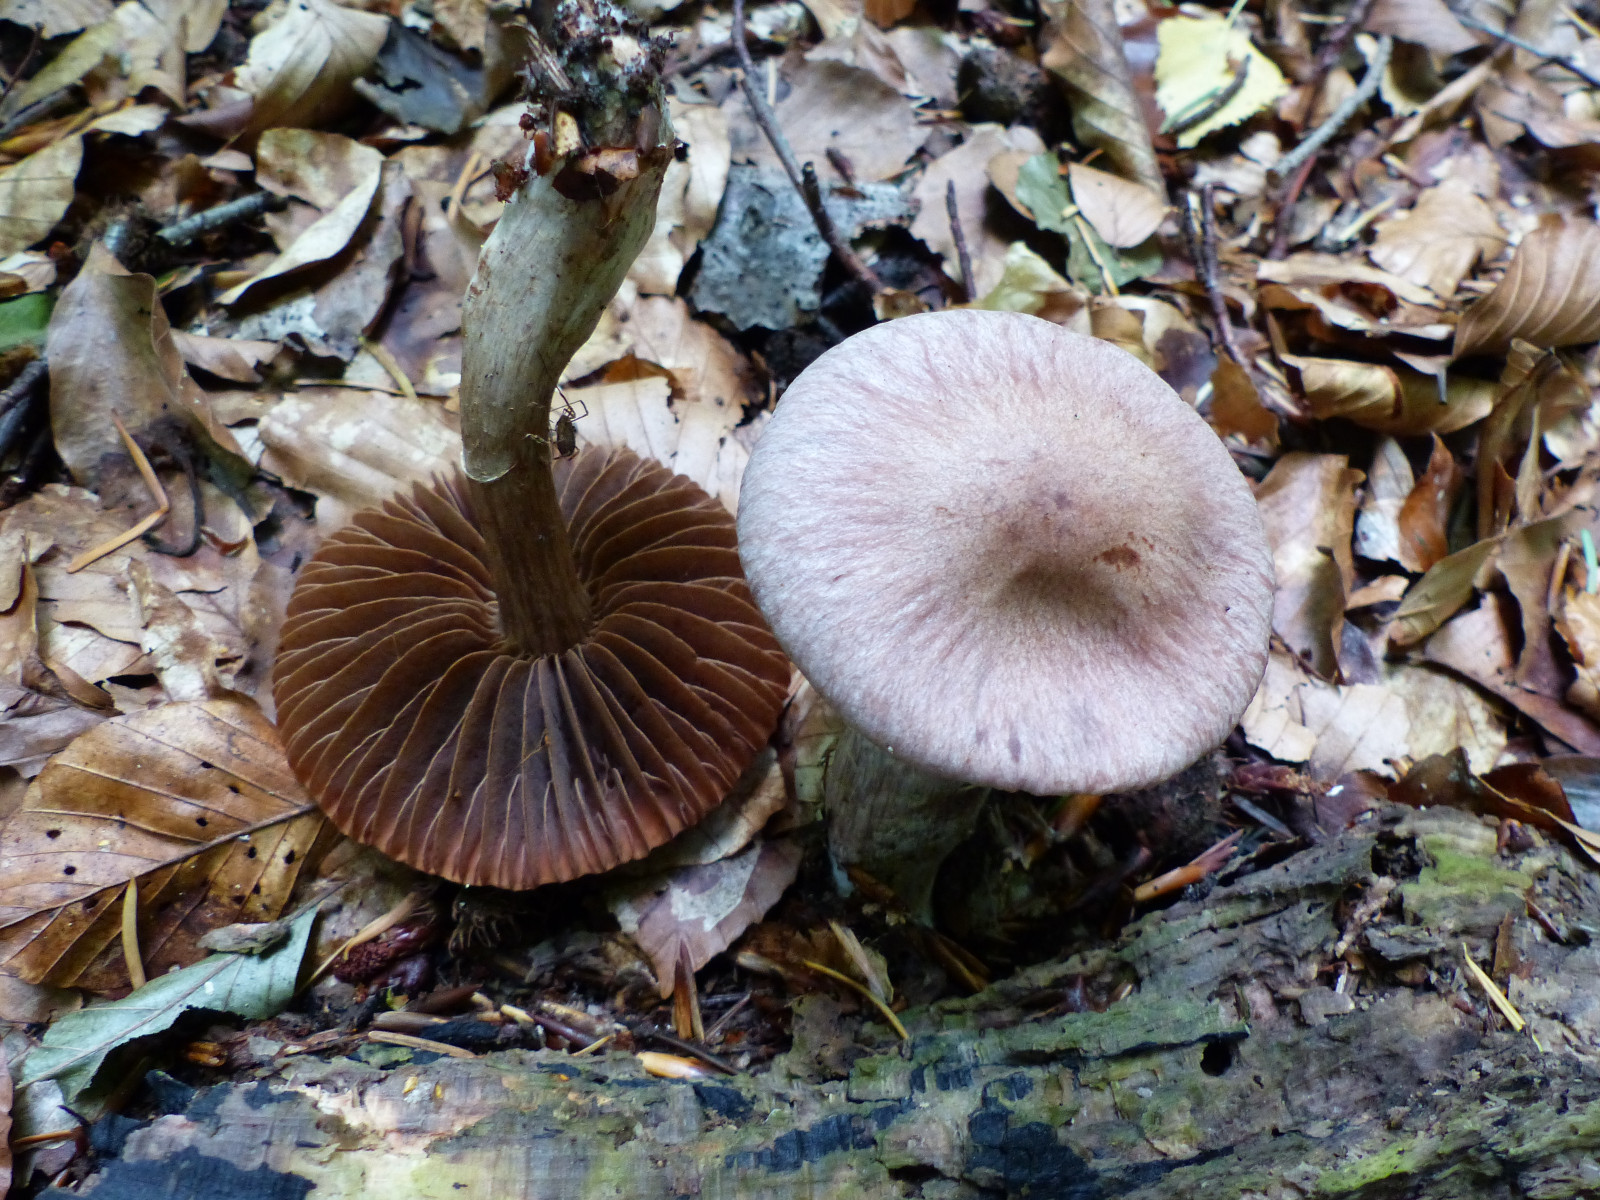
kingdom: Fungi
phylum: Basidiomycota
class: Agaricomycetes
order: Agaricales
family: Cortinariaceae
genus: Cortinarius
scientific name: Cortinarius torvus
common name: champignonagtig slørhat
